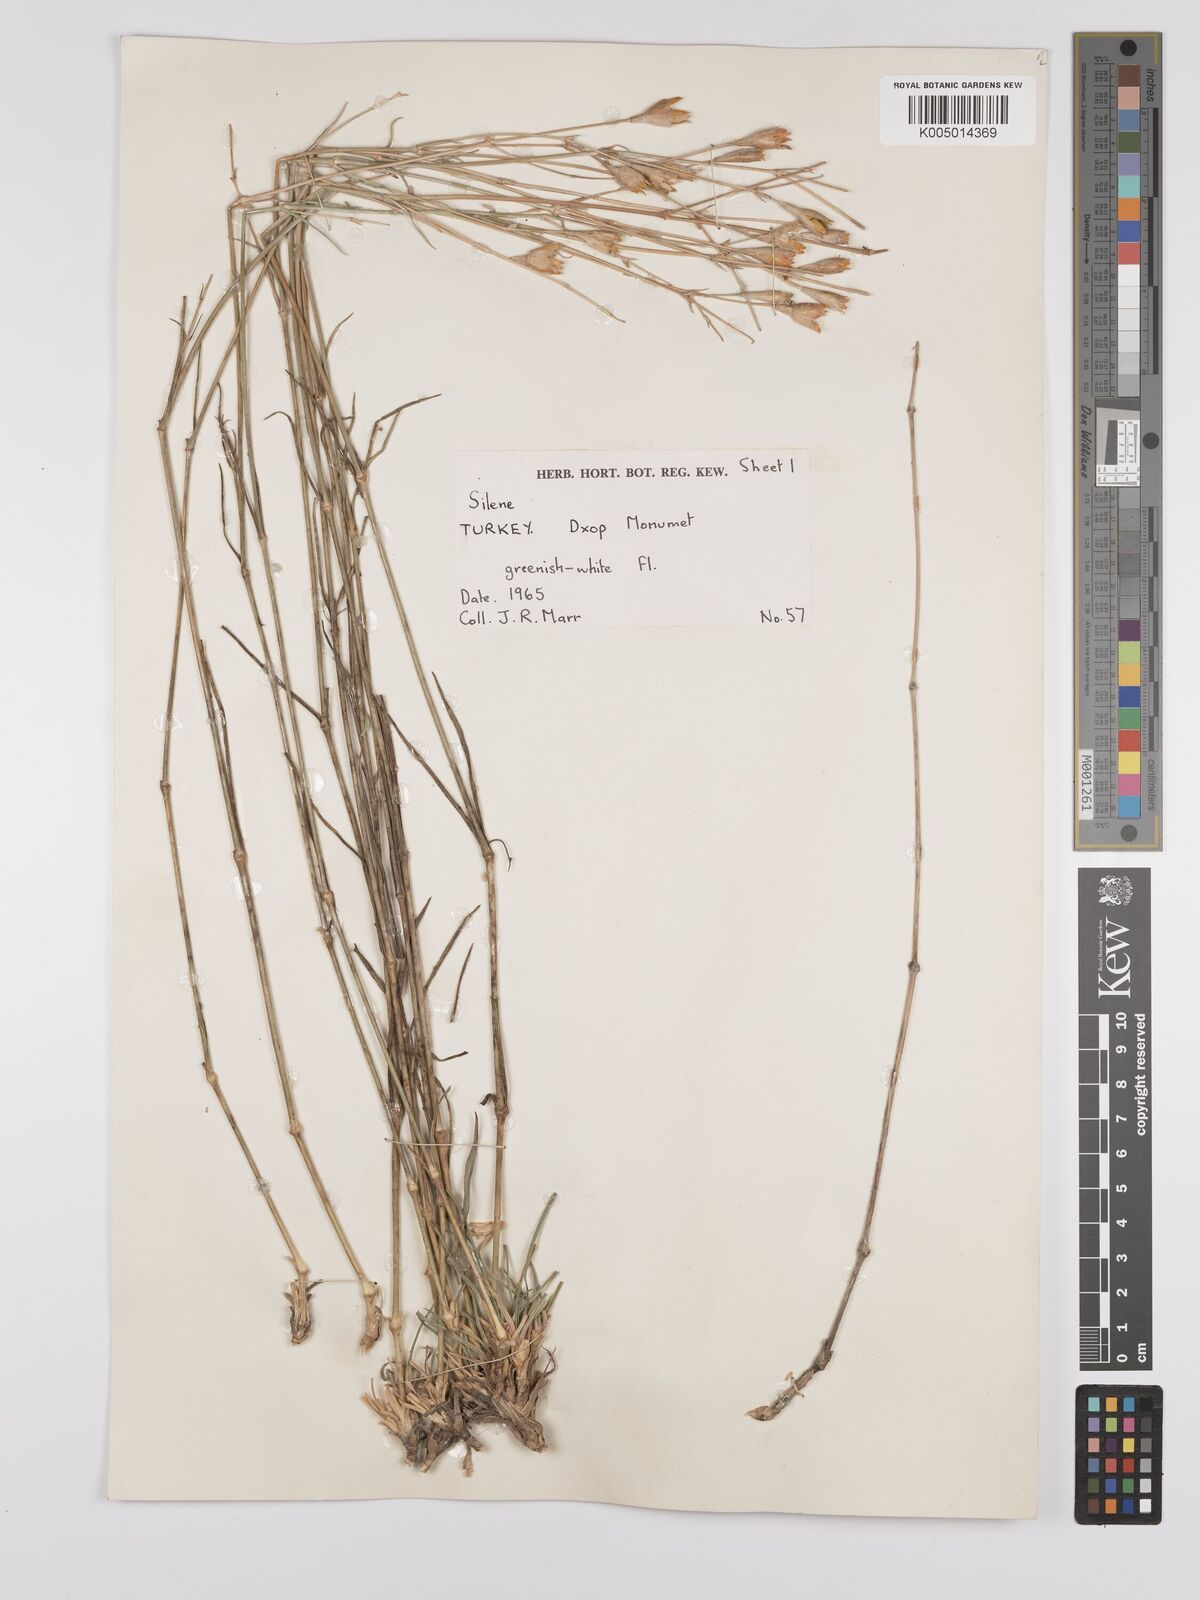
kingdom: Plantae
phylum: Tracheophyta
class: Magnoliopsida
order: Caryophyllales
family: Caryophyllaceae
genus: Silene
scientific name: Silene
